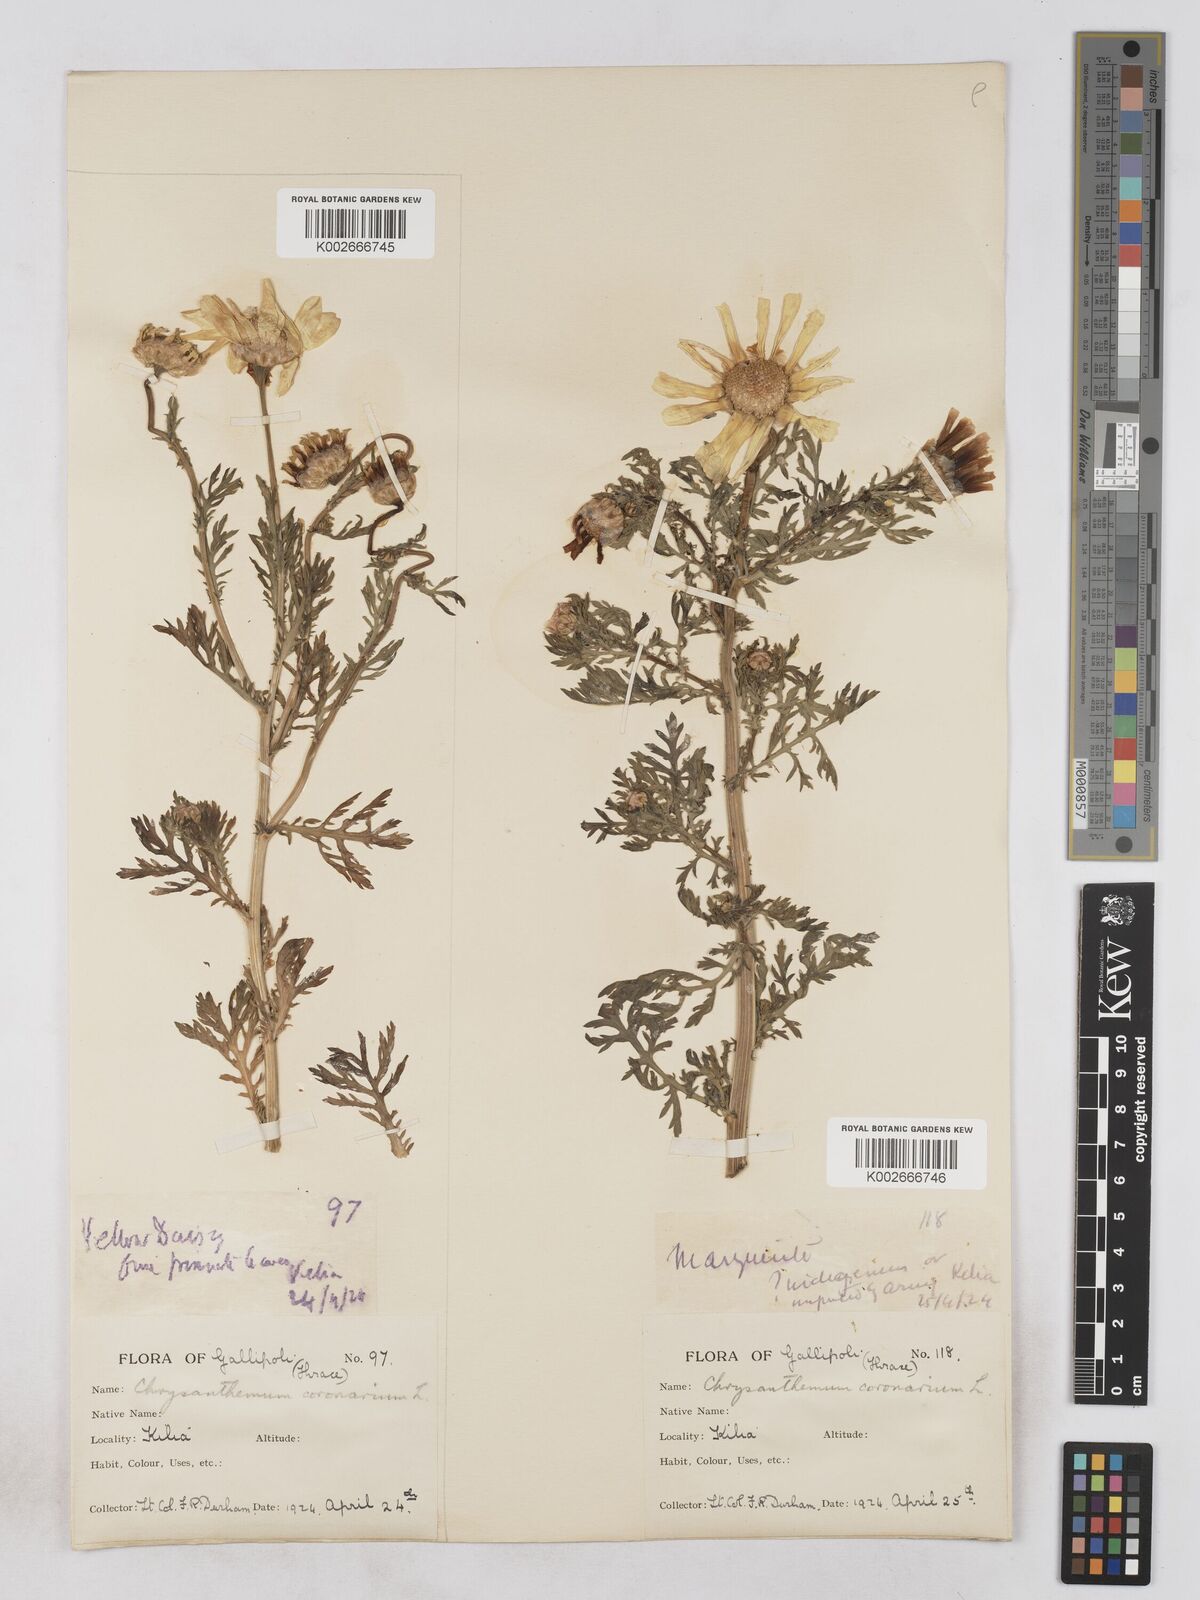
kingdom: Plantae
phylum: Tracheophyta
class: Magnoliopsida
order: Asterales
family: Asteraceae
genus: Glebionis
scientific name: Glebionis coronaria
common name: Crowndaisy
